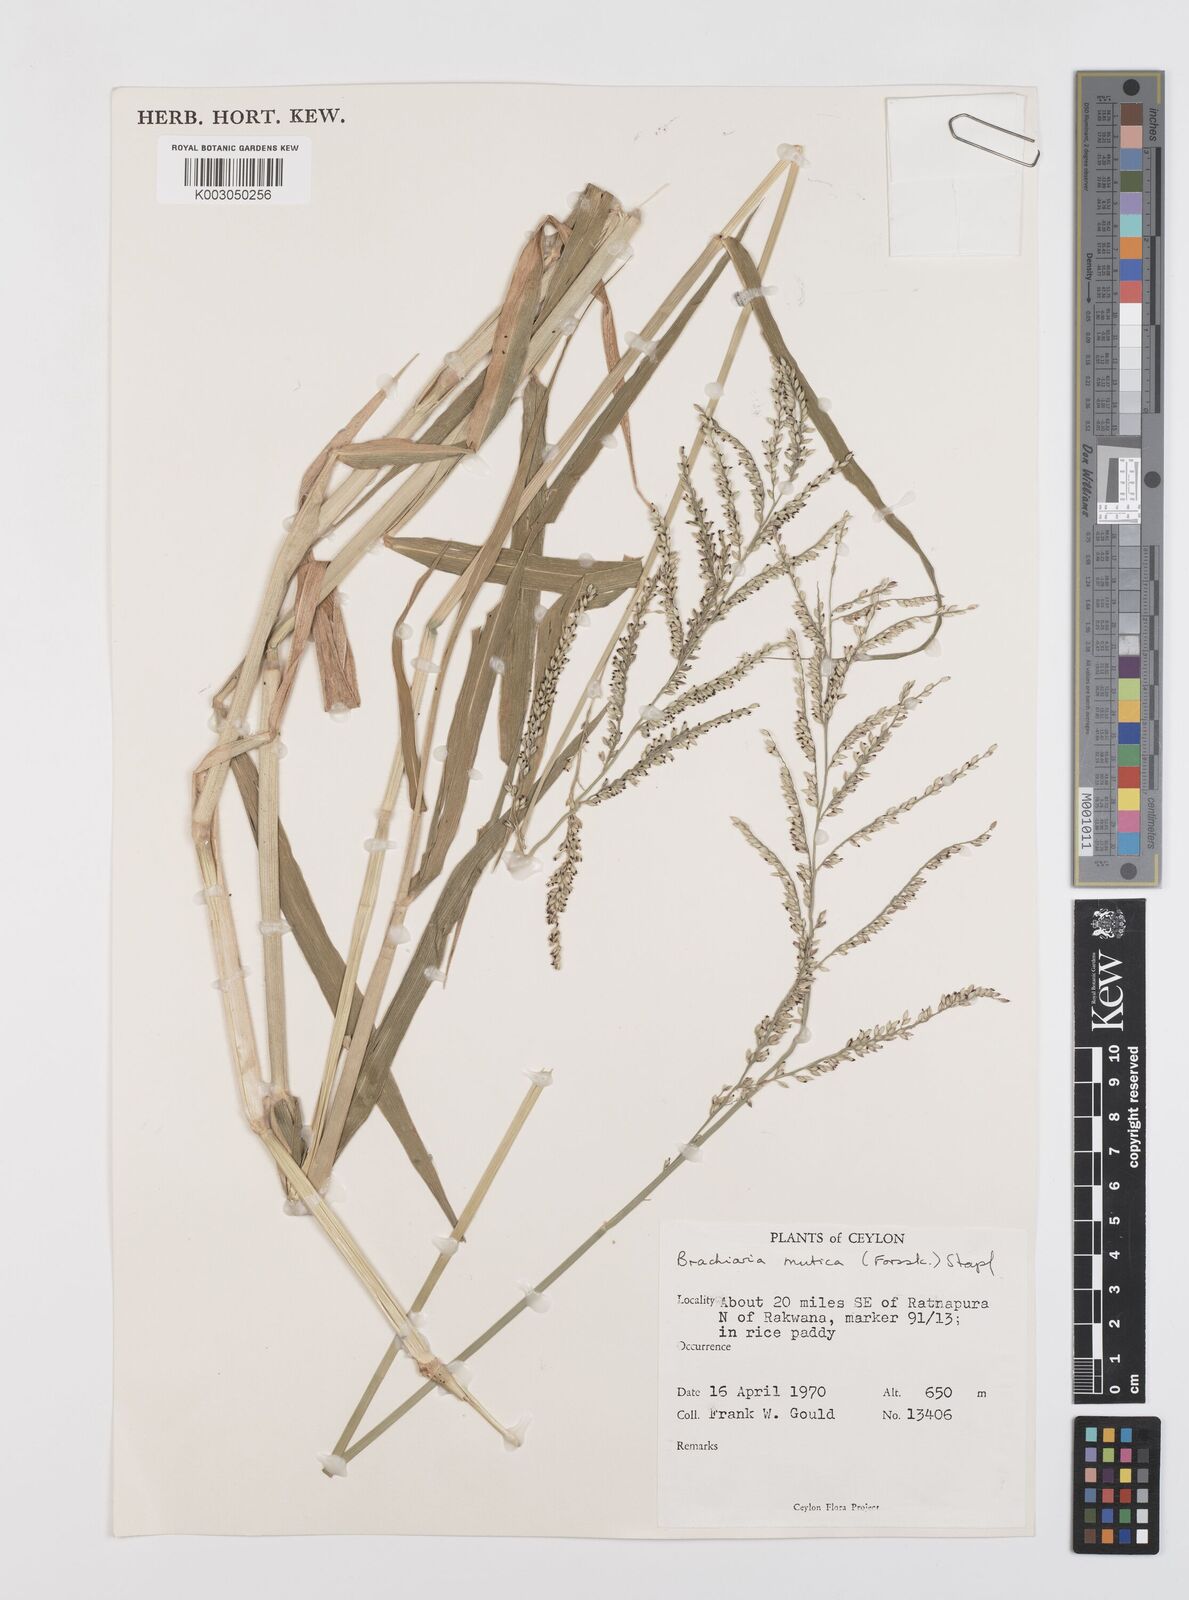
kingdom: Plantae
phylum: Tracheophyta
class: Liliopsida
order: Poales
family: Poaceae
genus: Urochloa
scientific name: Urochloa mutica
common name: Para grass
